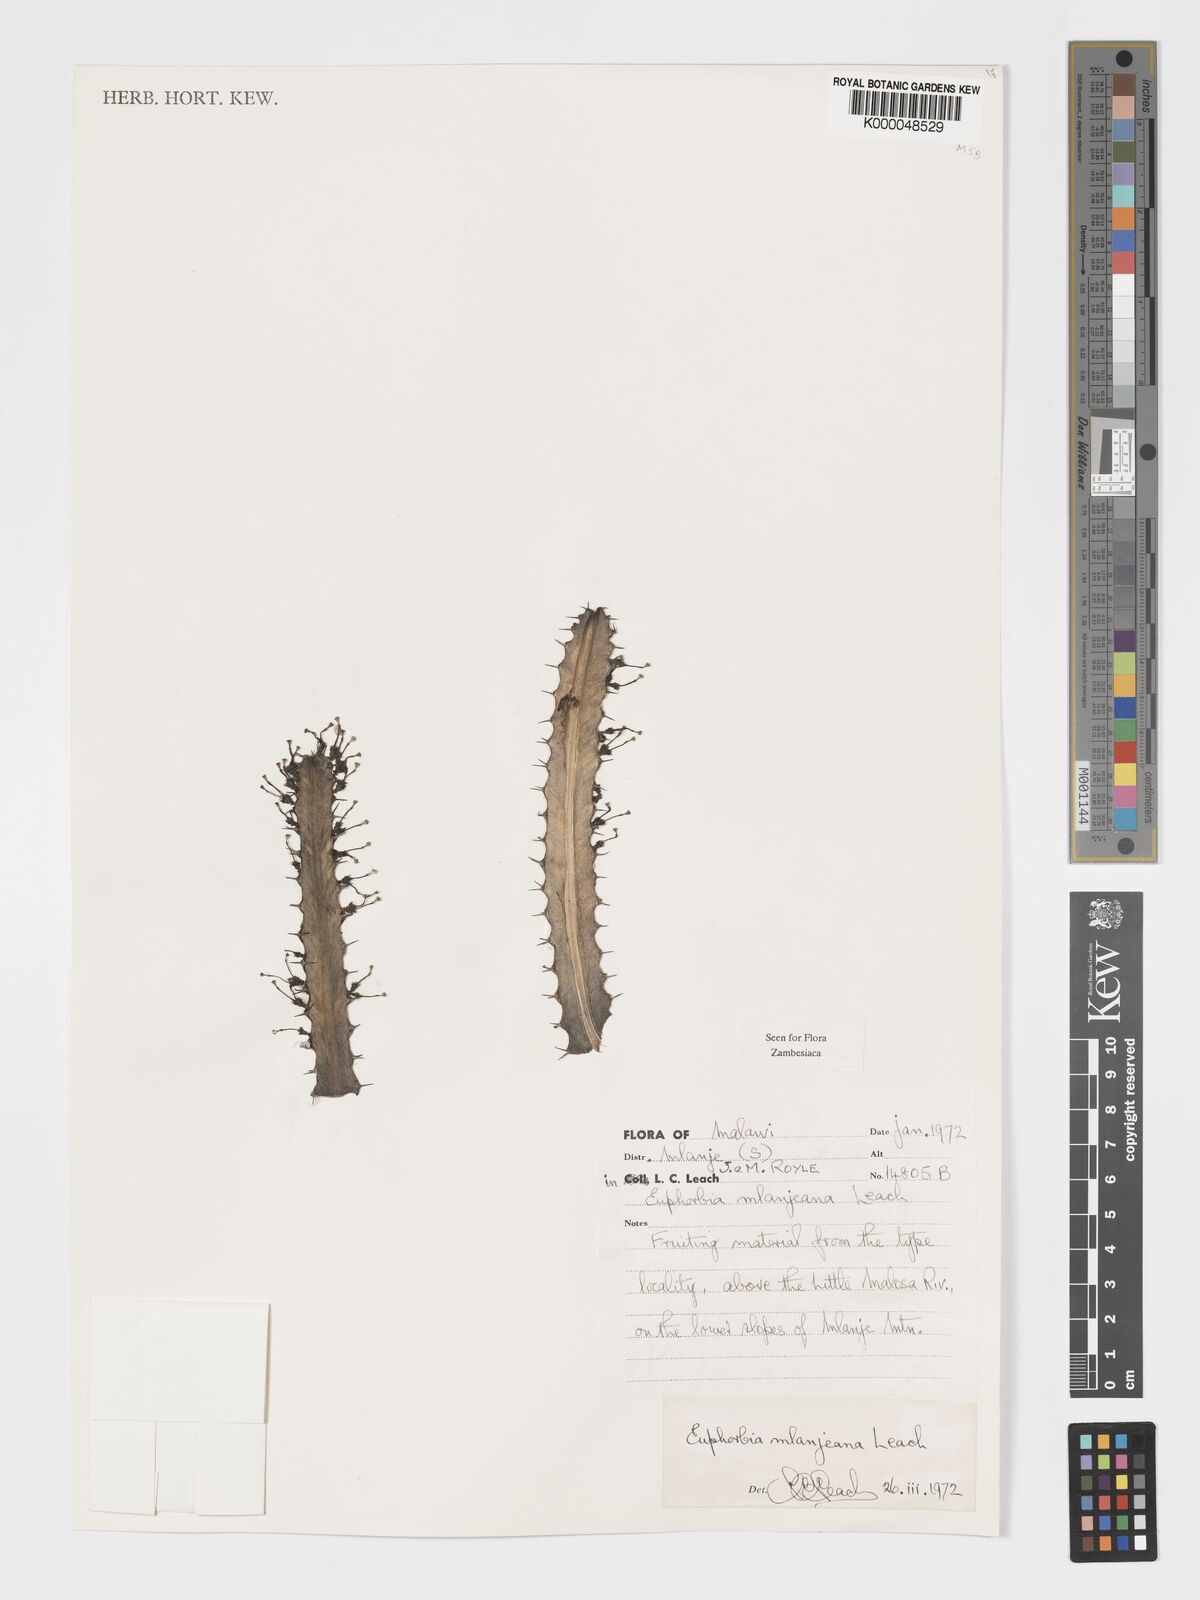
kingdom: Plantae
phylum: Tracheophyta
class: Magnoliopsida
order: Malpighiales
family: Euphorbiaceae
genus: Euphorbia
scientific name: Euphorbia mlanjeana
